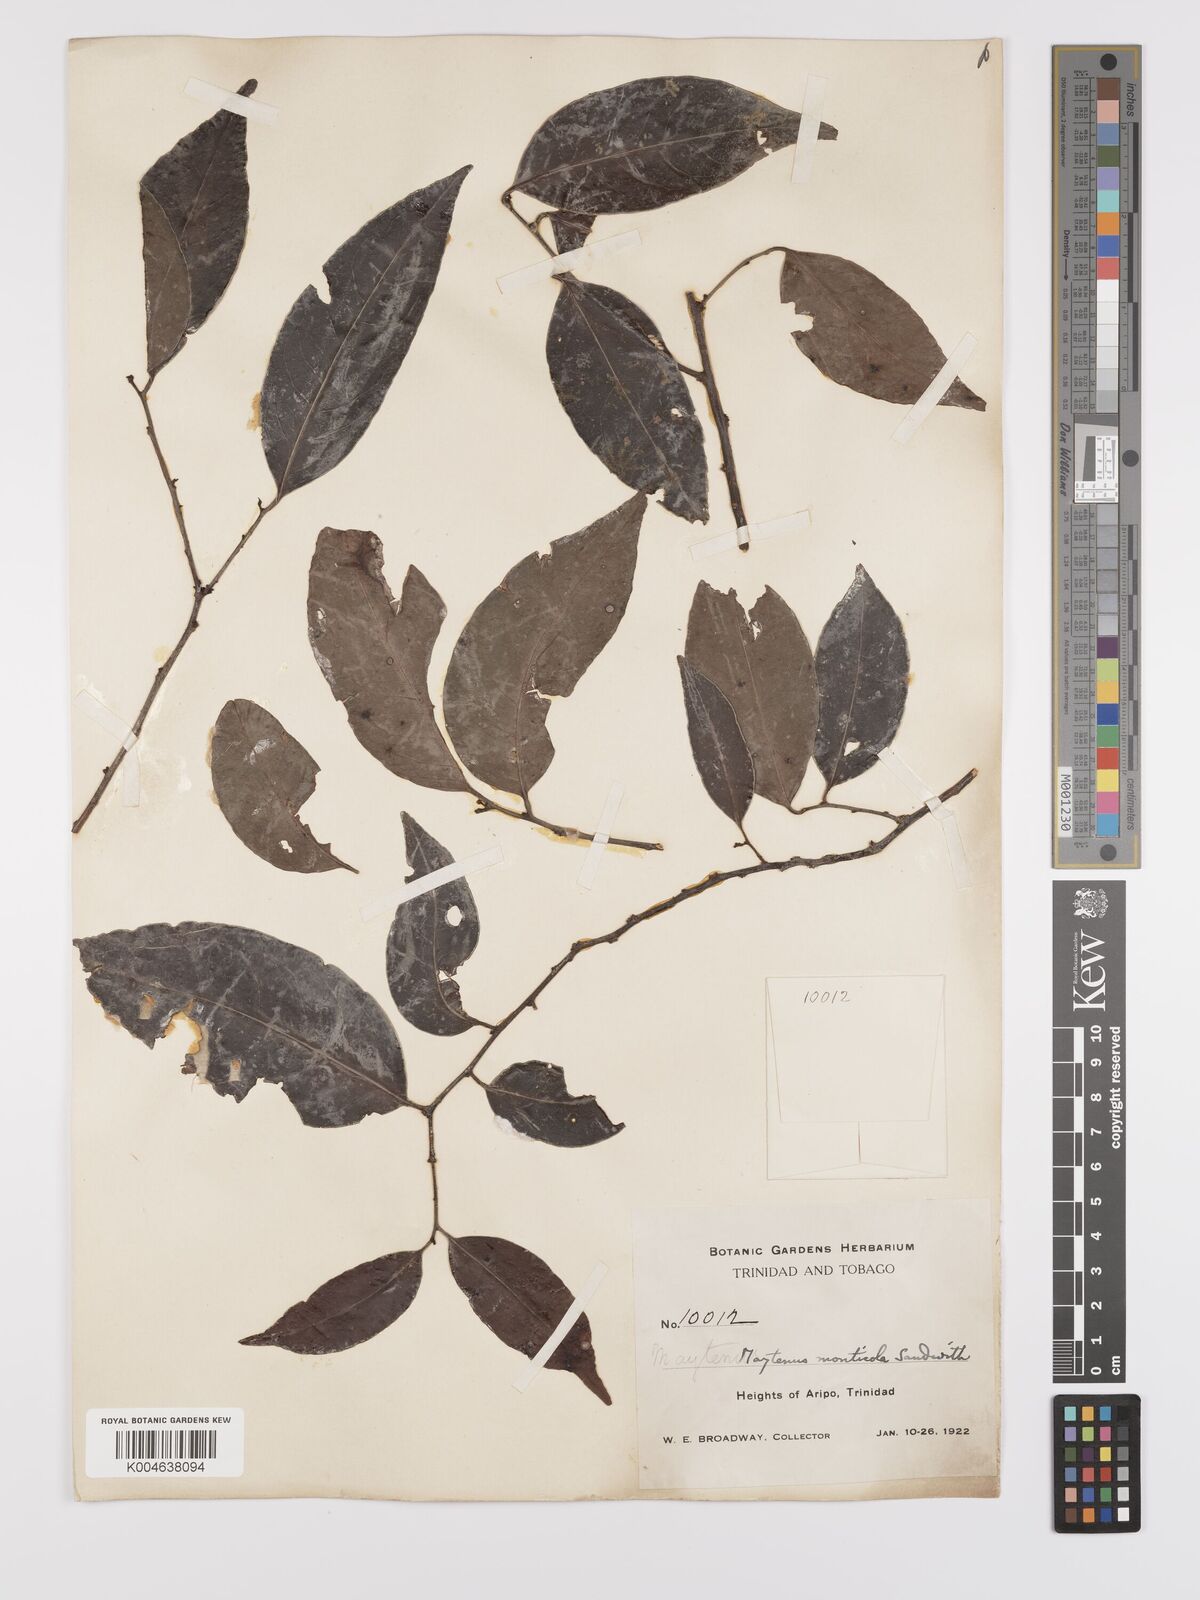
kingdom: Plantae
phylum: Tracheophyta
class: Magnoliopsida
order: Celastrales
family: Celastraceae
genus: Monteverdia
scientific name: Monteverdia monticola
